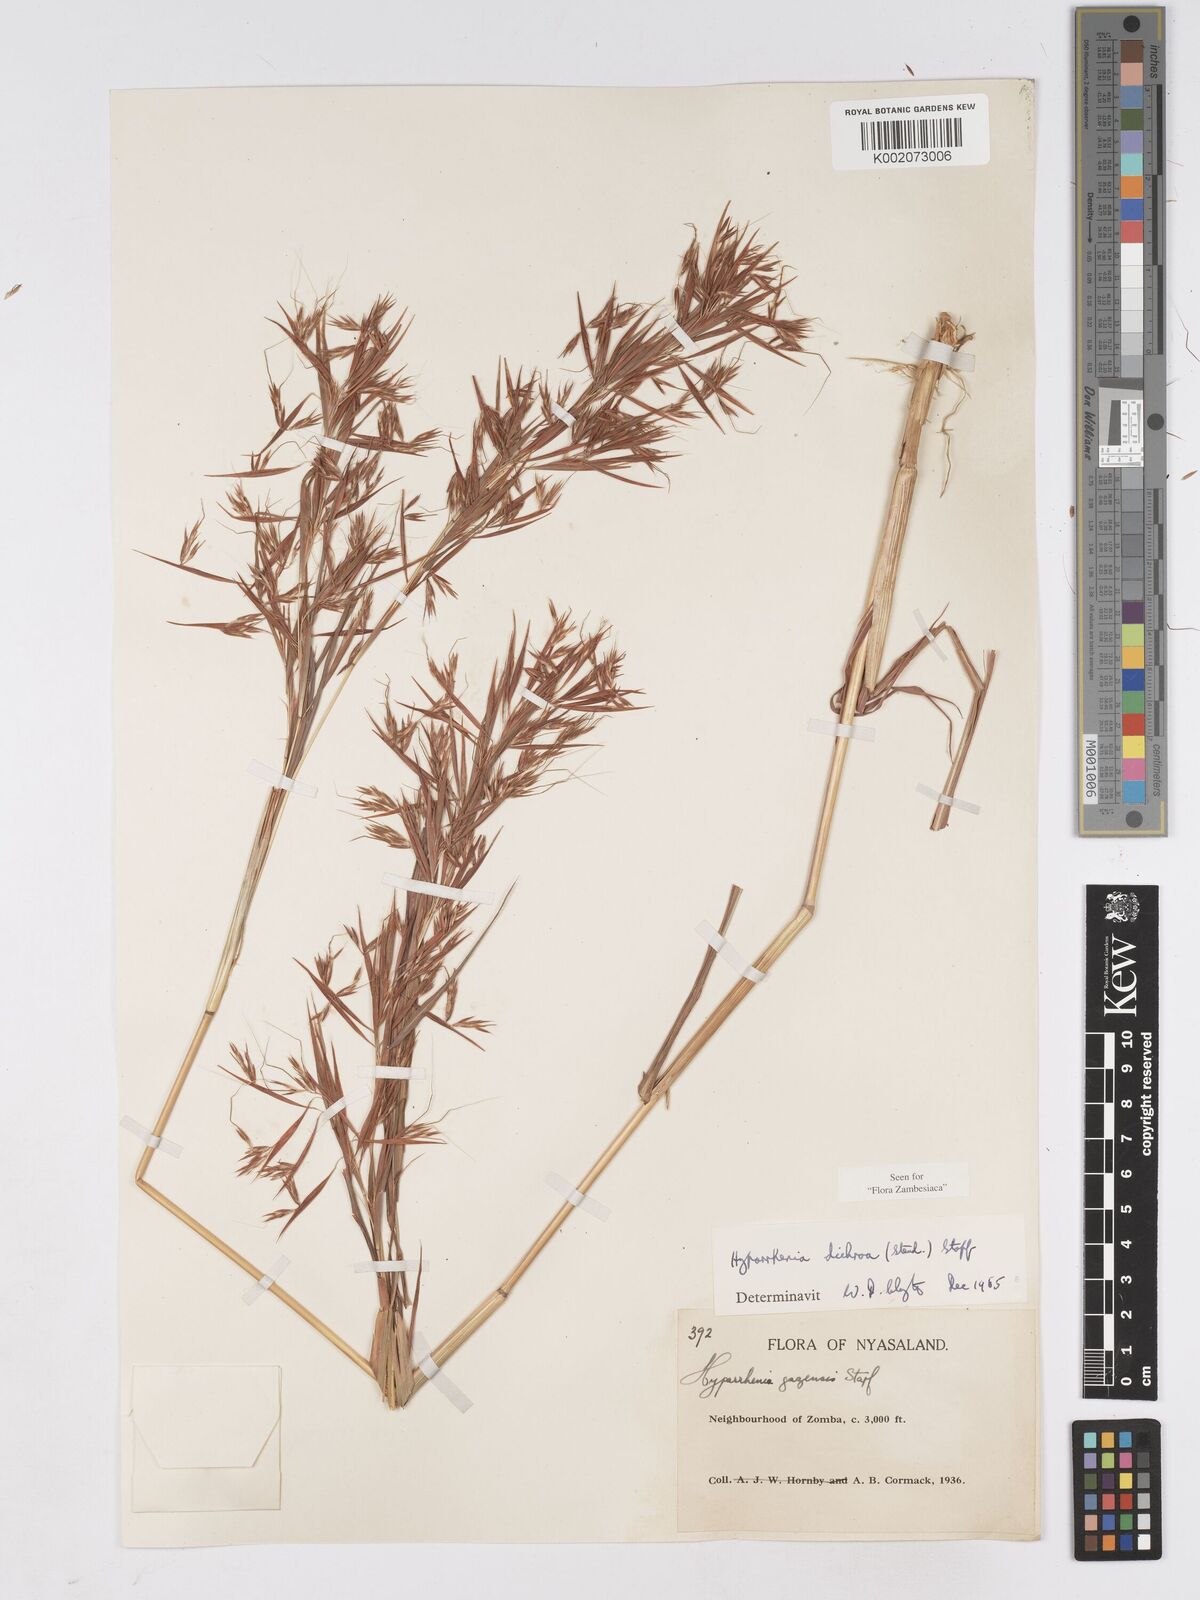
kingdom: Plantae
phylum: Tracheophyta
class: Liliopsida
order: Poales
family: Poaceae
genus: Hyparrhenia
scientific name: Hyparrhenia dichroa
